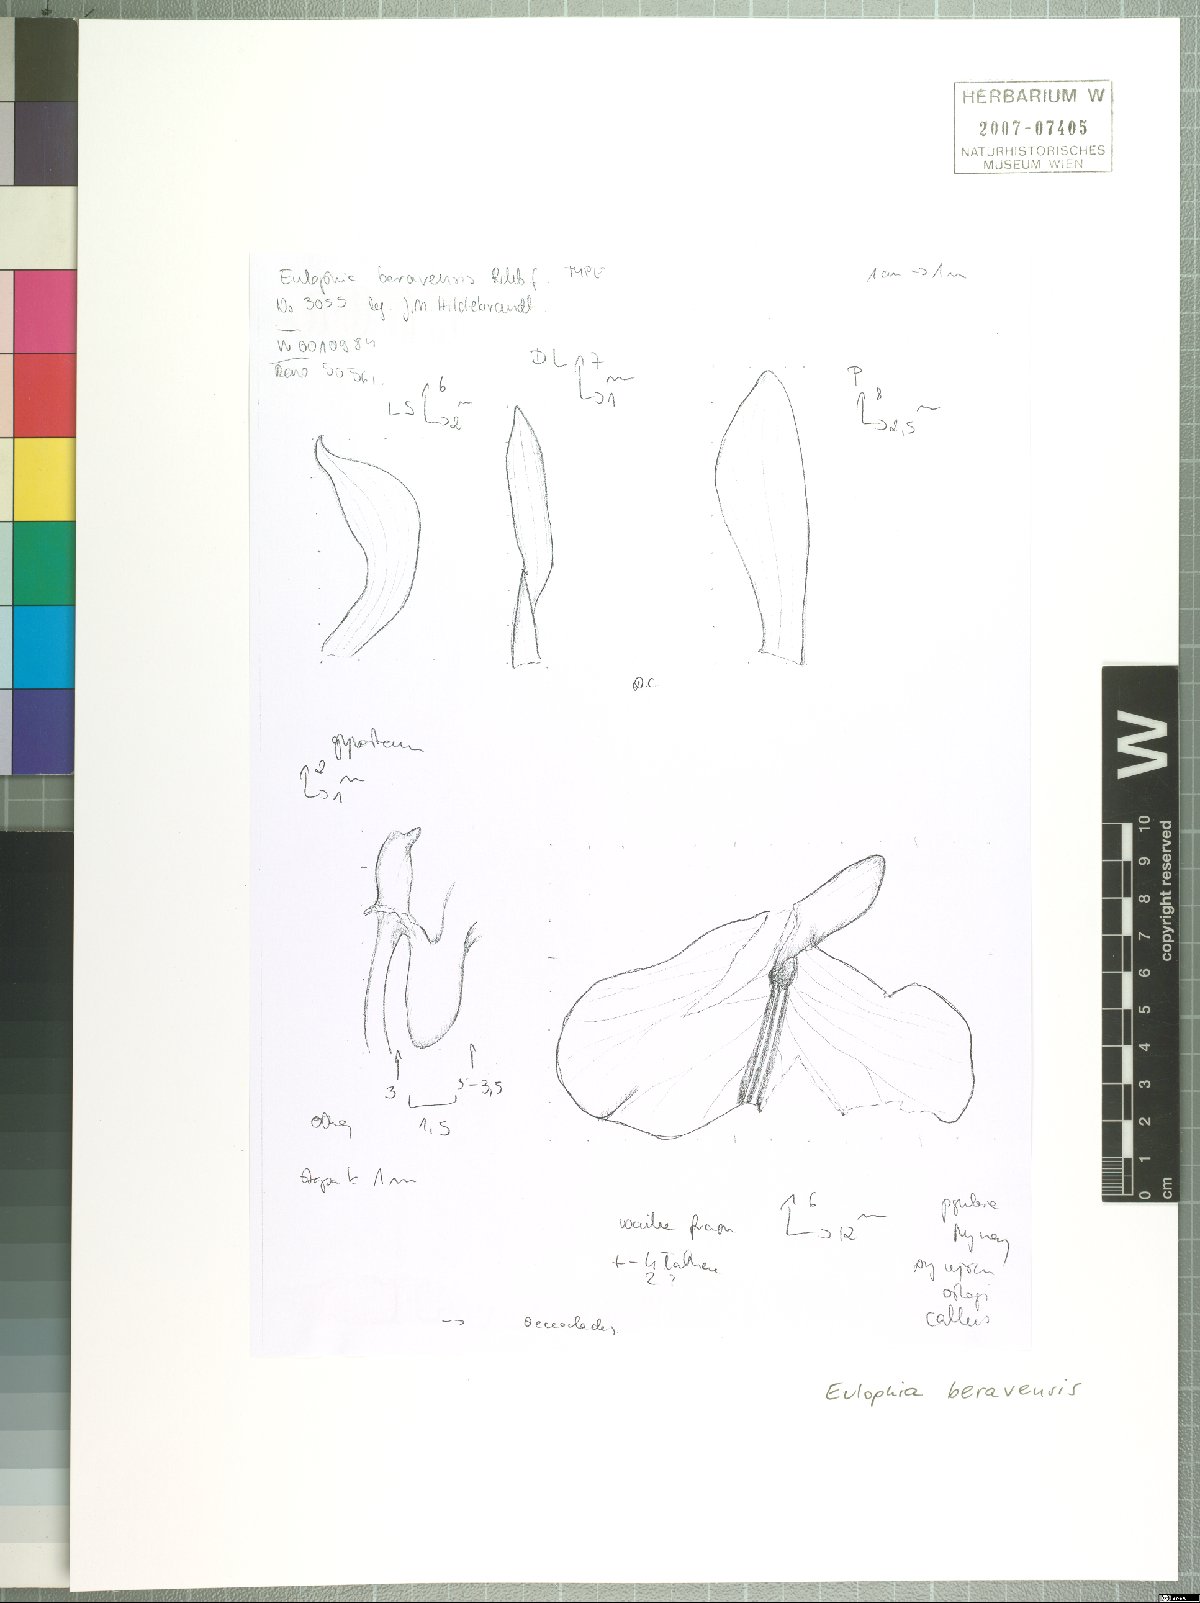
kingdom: Plantae
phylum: Tracheophyta
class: Liliopsida
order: Asparagales
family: Orchidaceae
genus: Eulophia
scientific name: Eulophia beravensis
